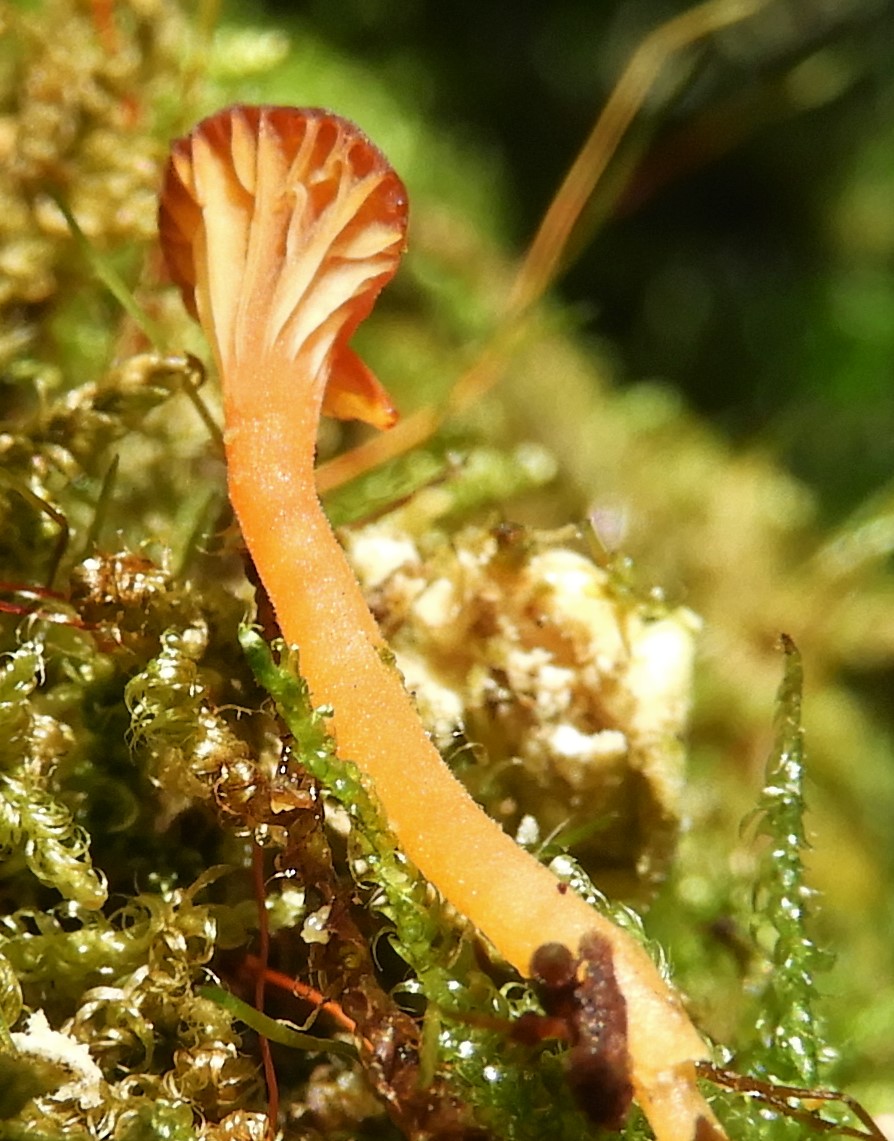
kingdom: Fungi
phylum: Basidiomycota
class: Agaricomycetes
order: Hymenochaetales
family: Rickenellaceae
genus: Rickenella
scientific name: Rickenella fibula
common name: orange mosnavlehat
